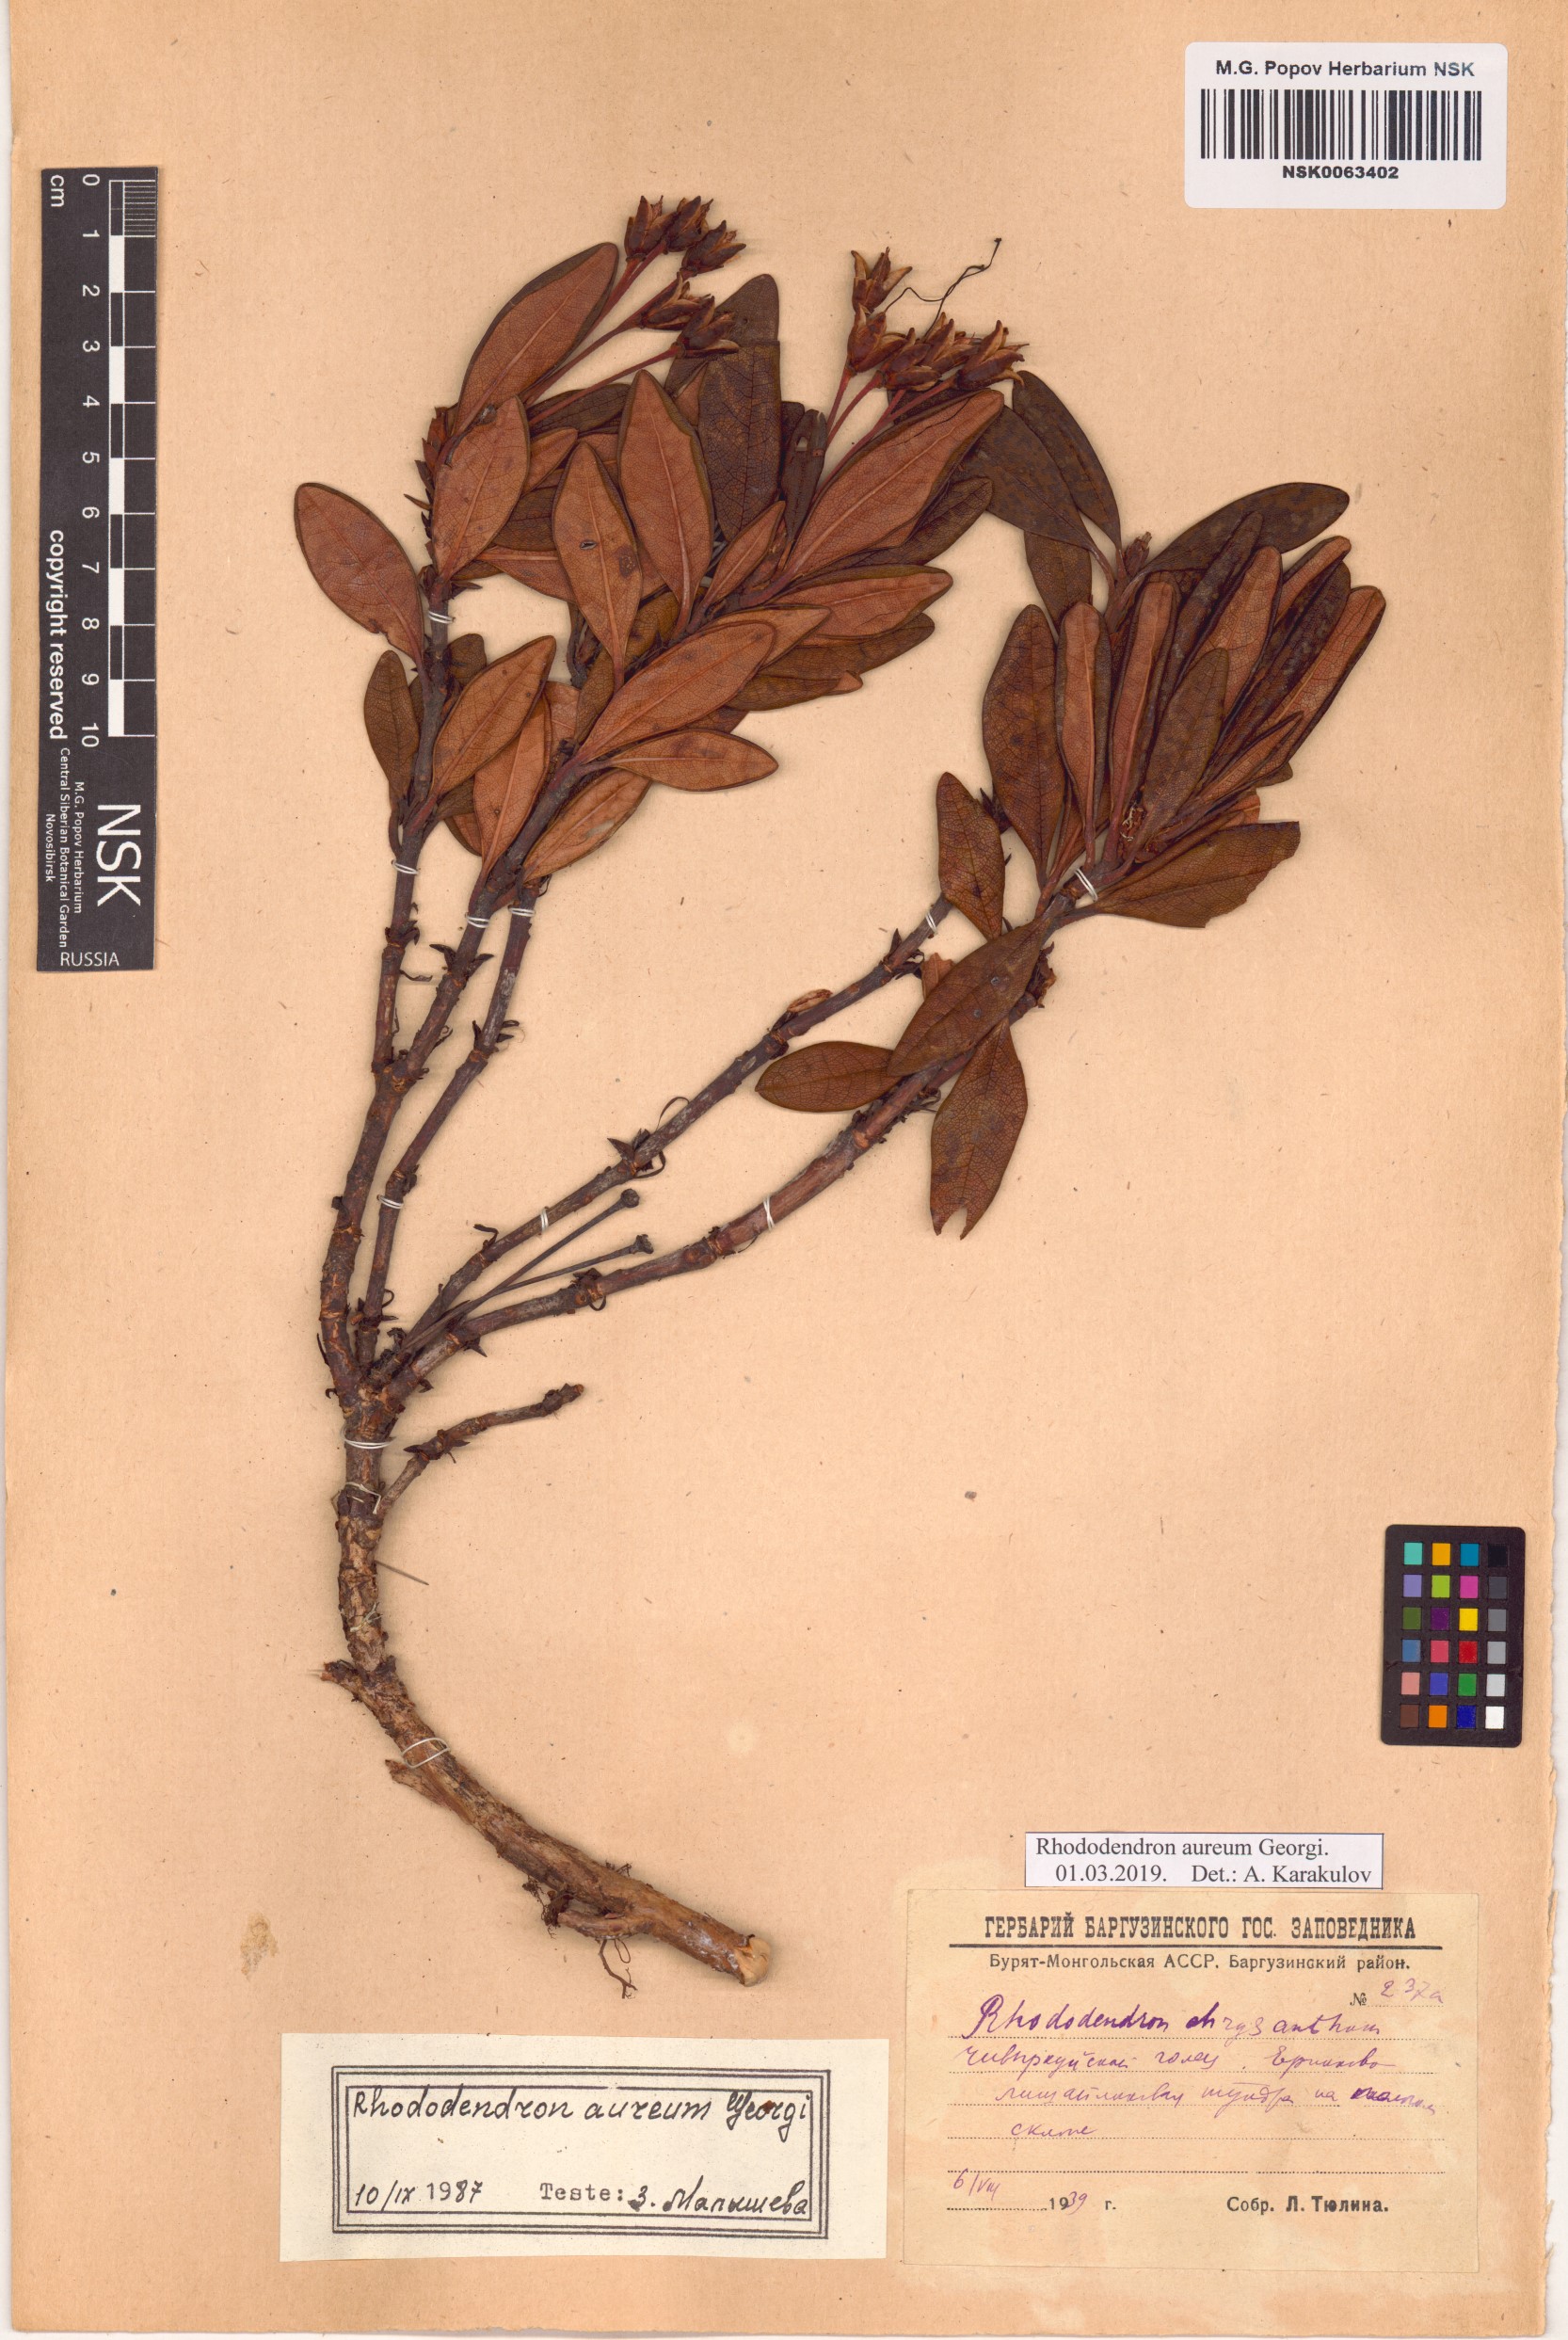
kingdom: Plantae
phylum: Tracheophyta
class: Magnoliopsida
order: Ericales
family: Ericaceae
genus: Rhododendron
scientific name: Rhododendron aureum
